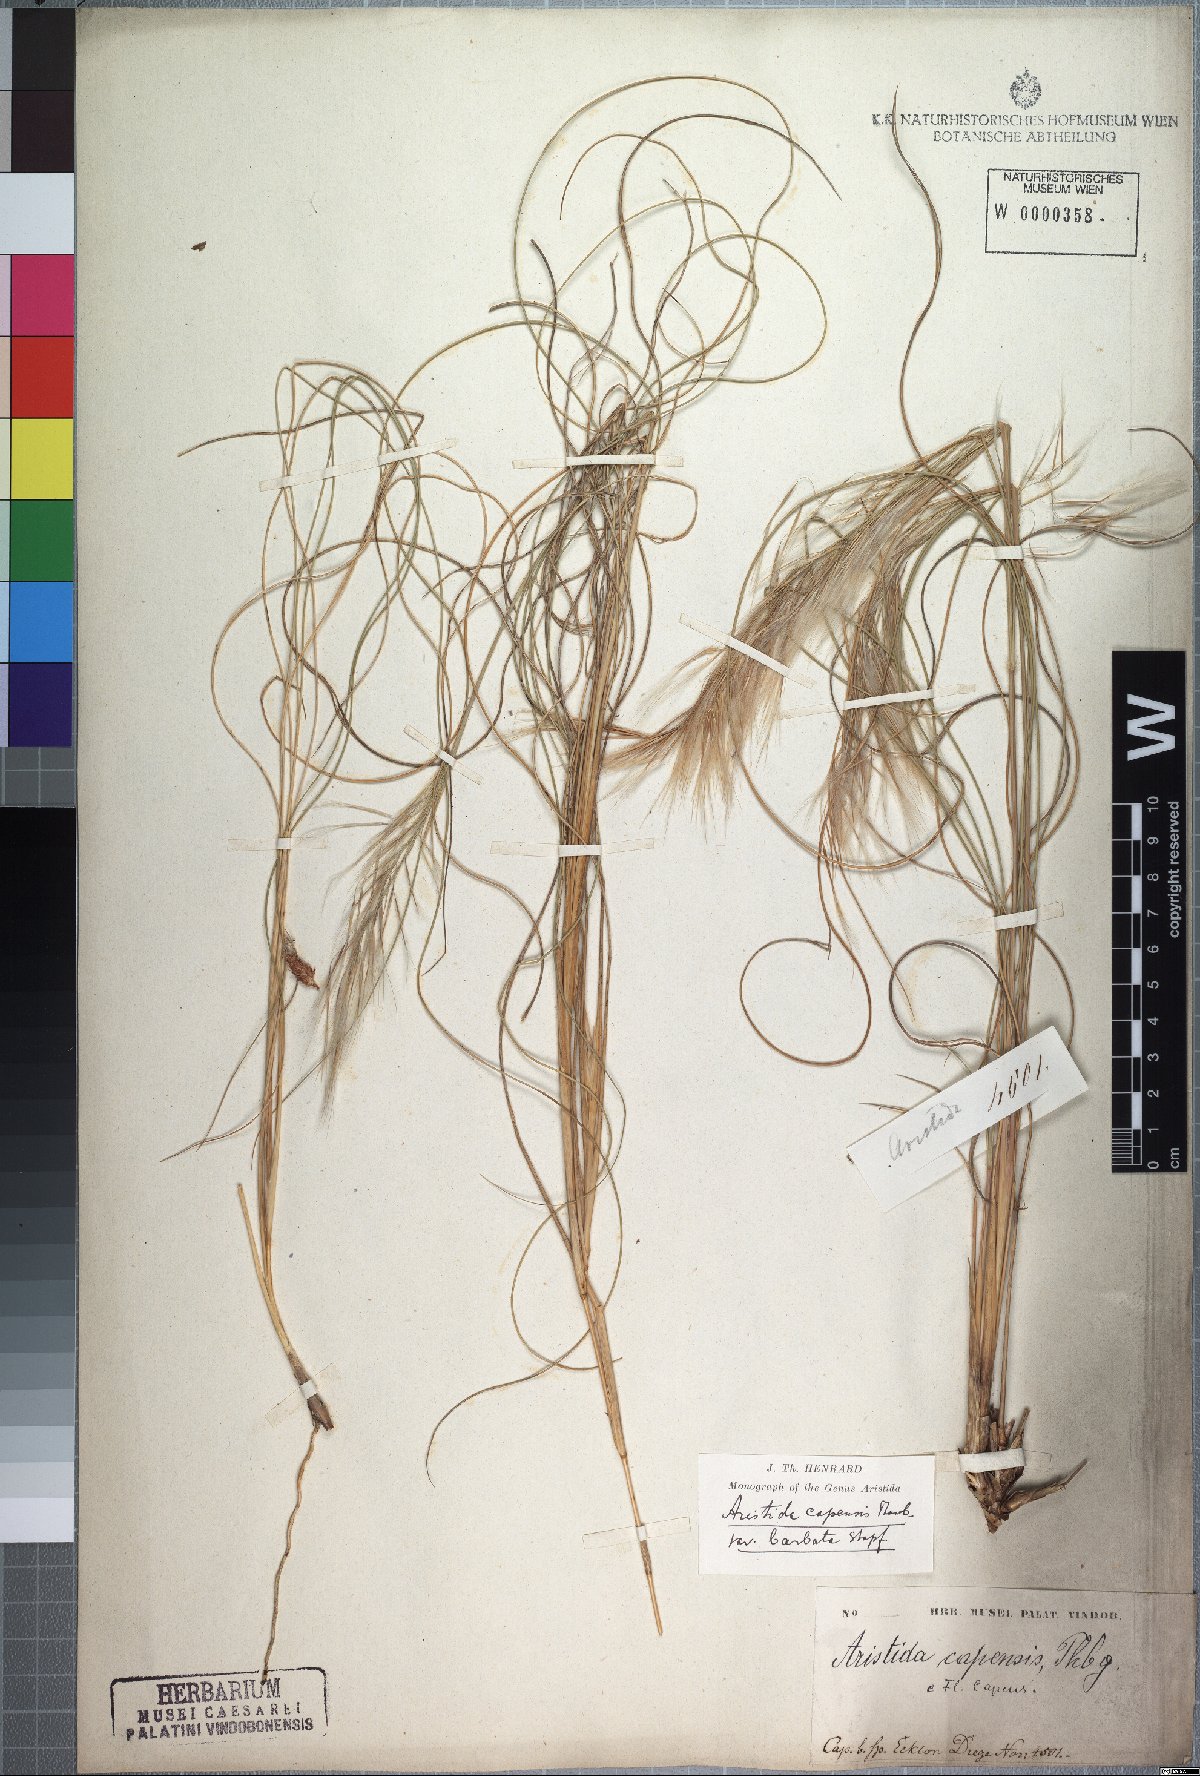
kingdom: Plantae
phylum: Tracheophyta
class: Liliopsida
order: Poales
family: Poaceae
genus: Stipagrostis
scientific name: Stipagrostis zeyheri
